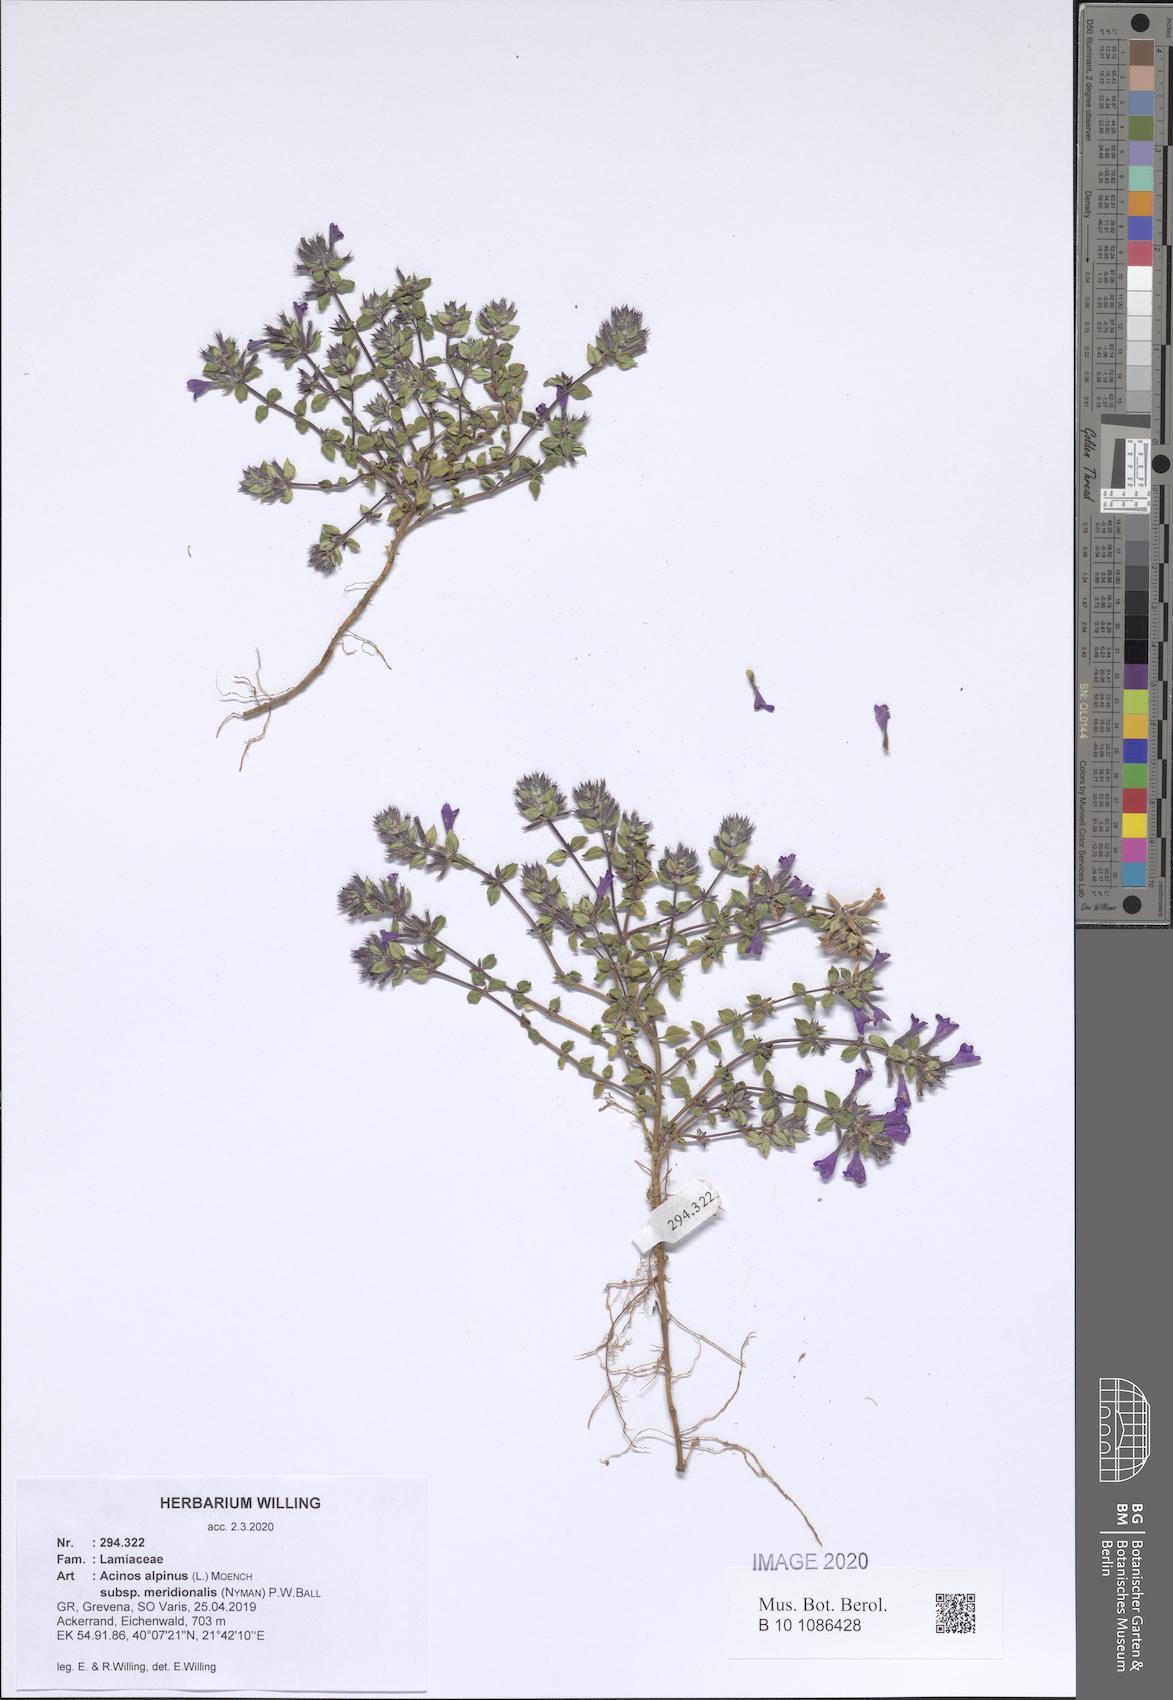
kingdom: Plantae
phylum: Tracheophyta
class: Magnoliopsida
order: Lamiales
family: Lamiaceae
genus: Clinopodium
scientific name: Clinopodium alpinum
